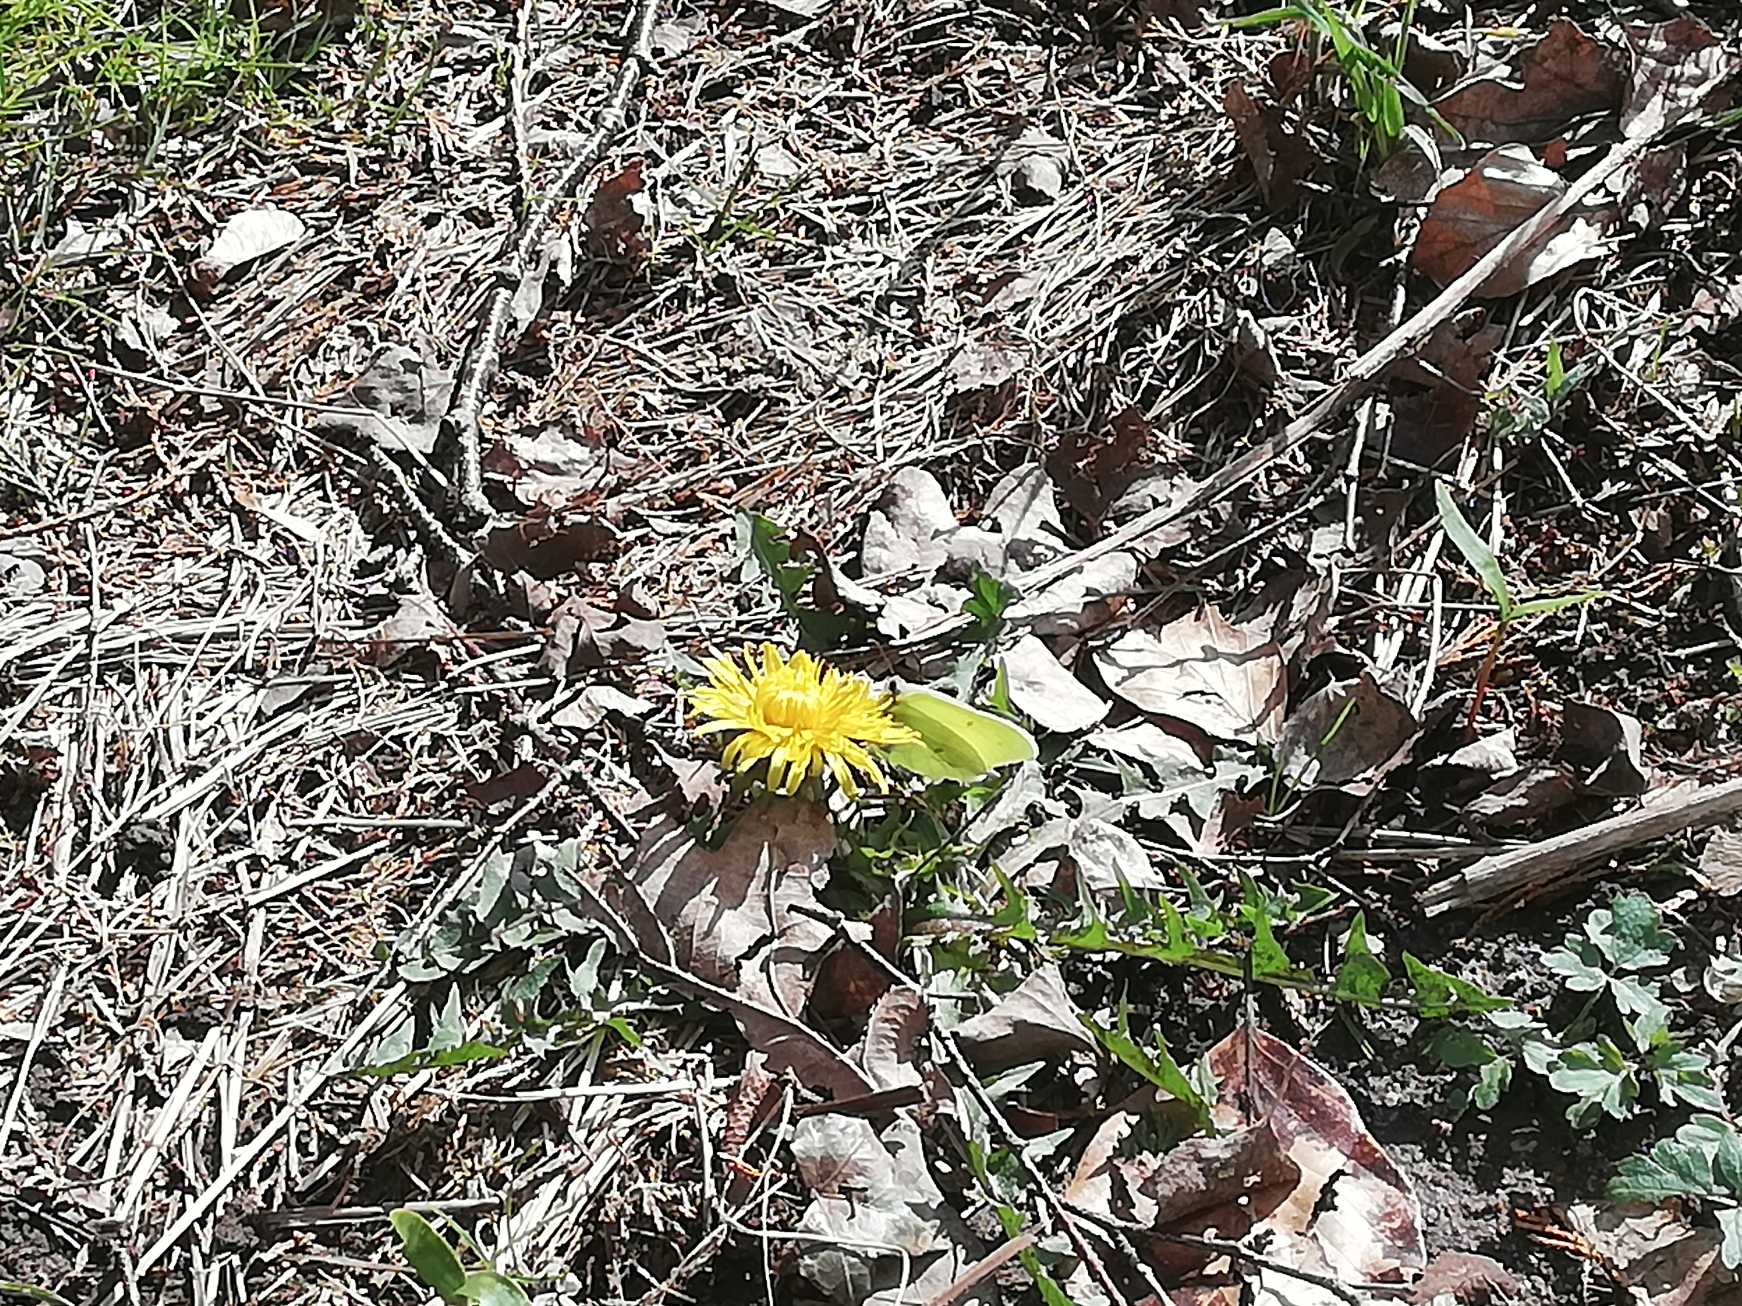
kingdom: Animalia
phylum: Arthropoda
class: Insecta
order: Lepidoptera
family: Pieridae
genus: Gonepteryx
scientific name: Gonepteryx rhamni
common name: Citronsommerfugl
